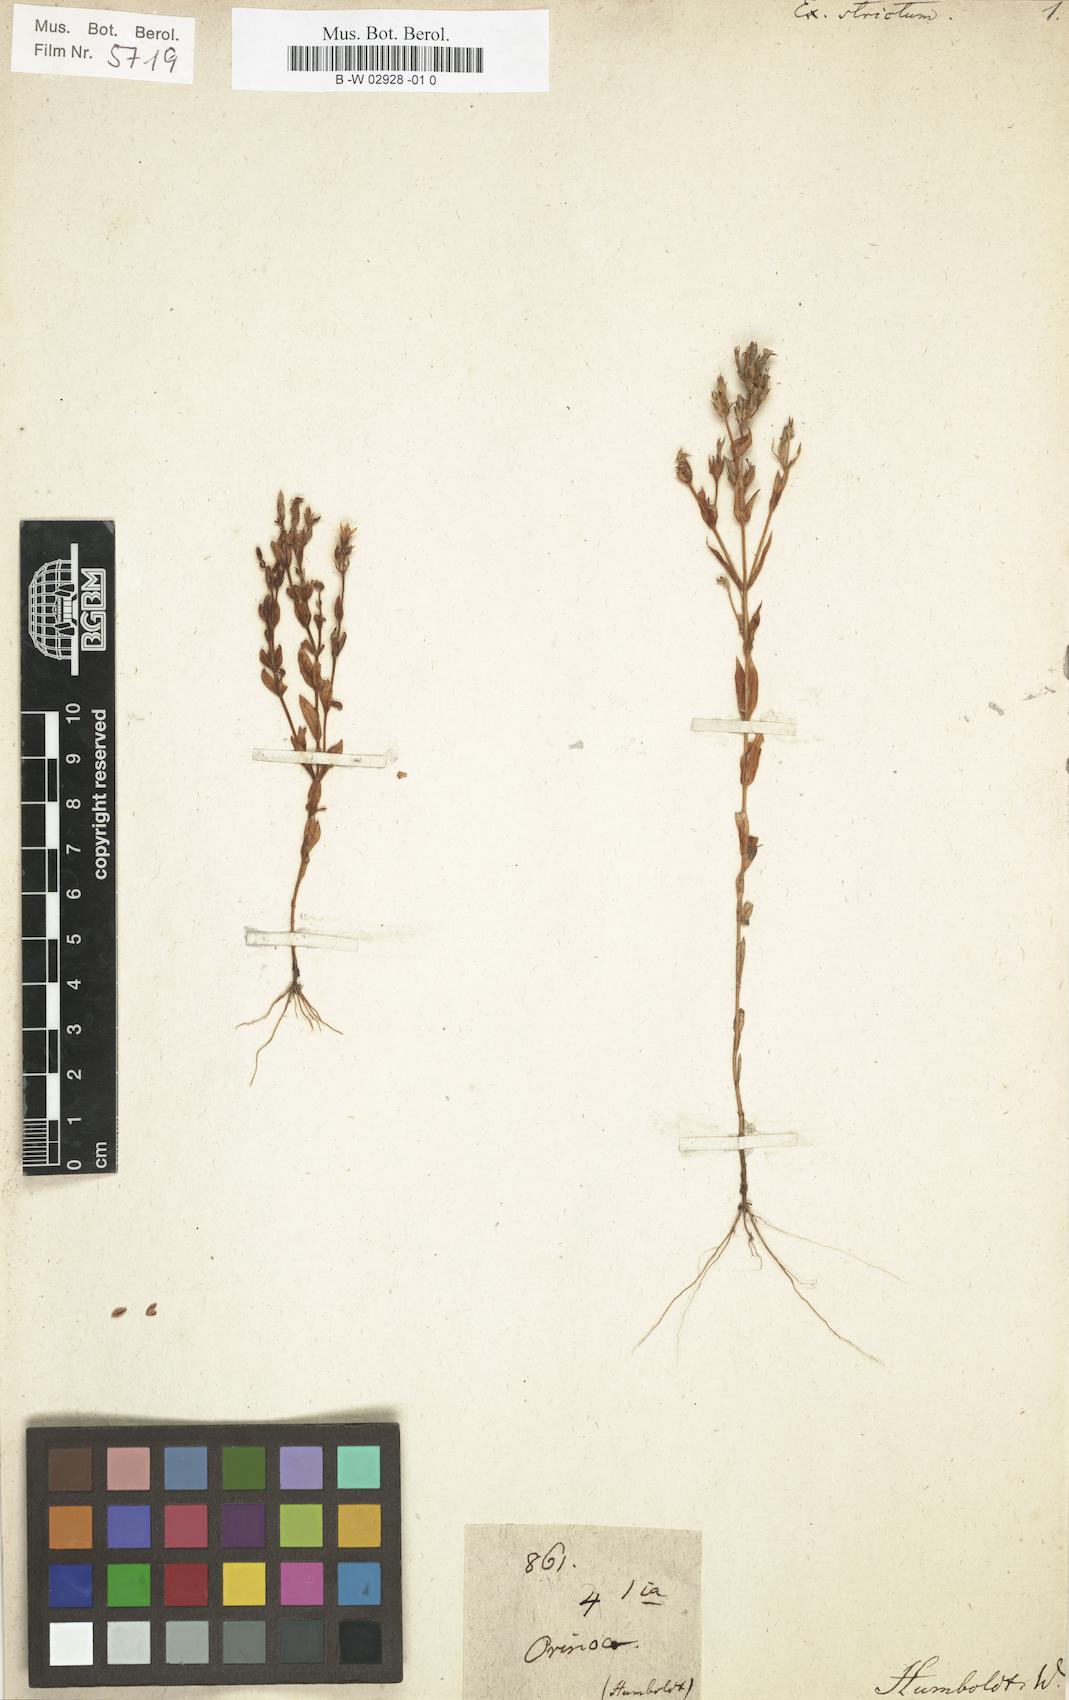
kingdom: Plantae
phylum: Tracheophyta
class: Magnoliopsida
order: Gentianales
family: Gentianaceae
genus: Coutoubea
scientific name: Coutoubea spicata
